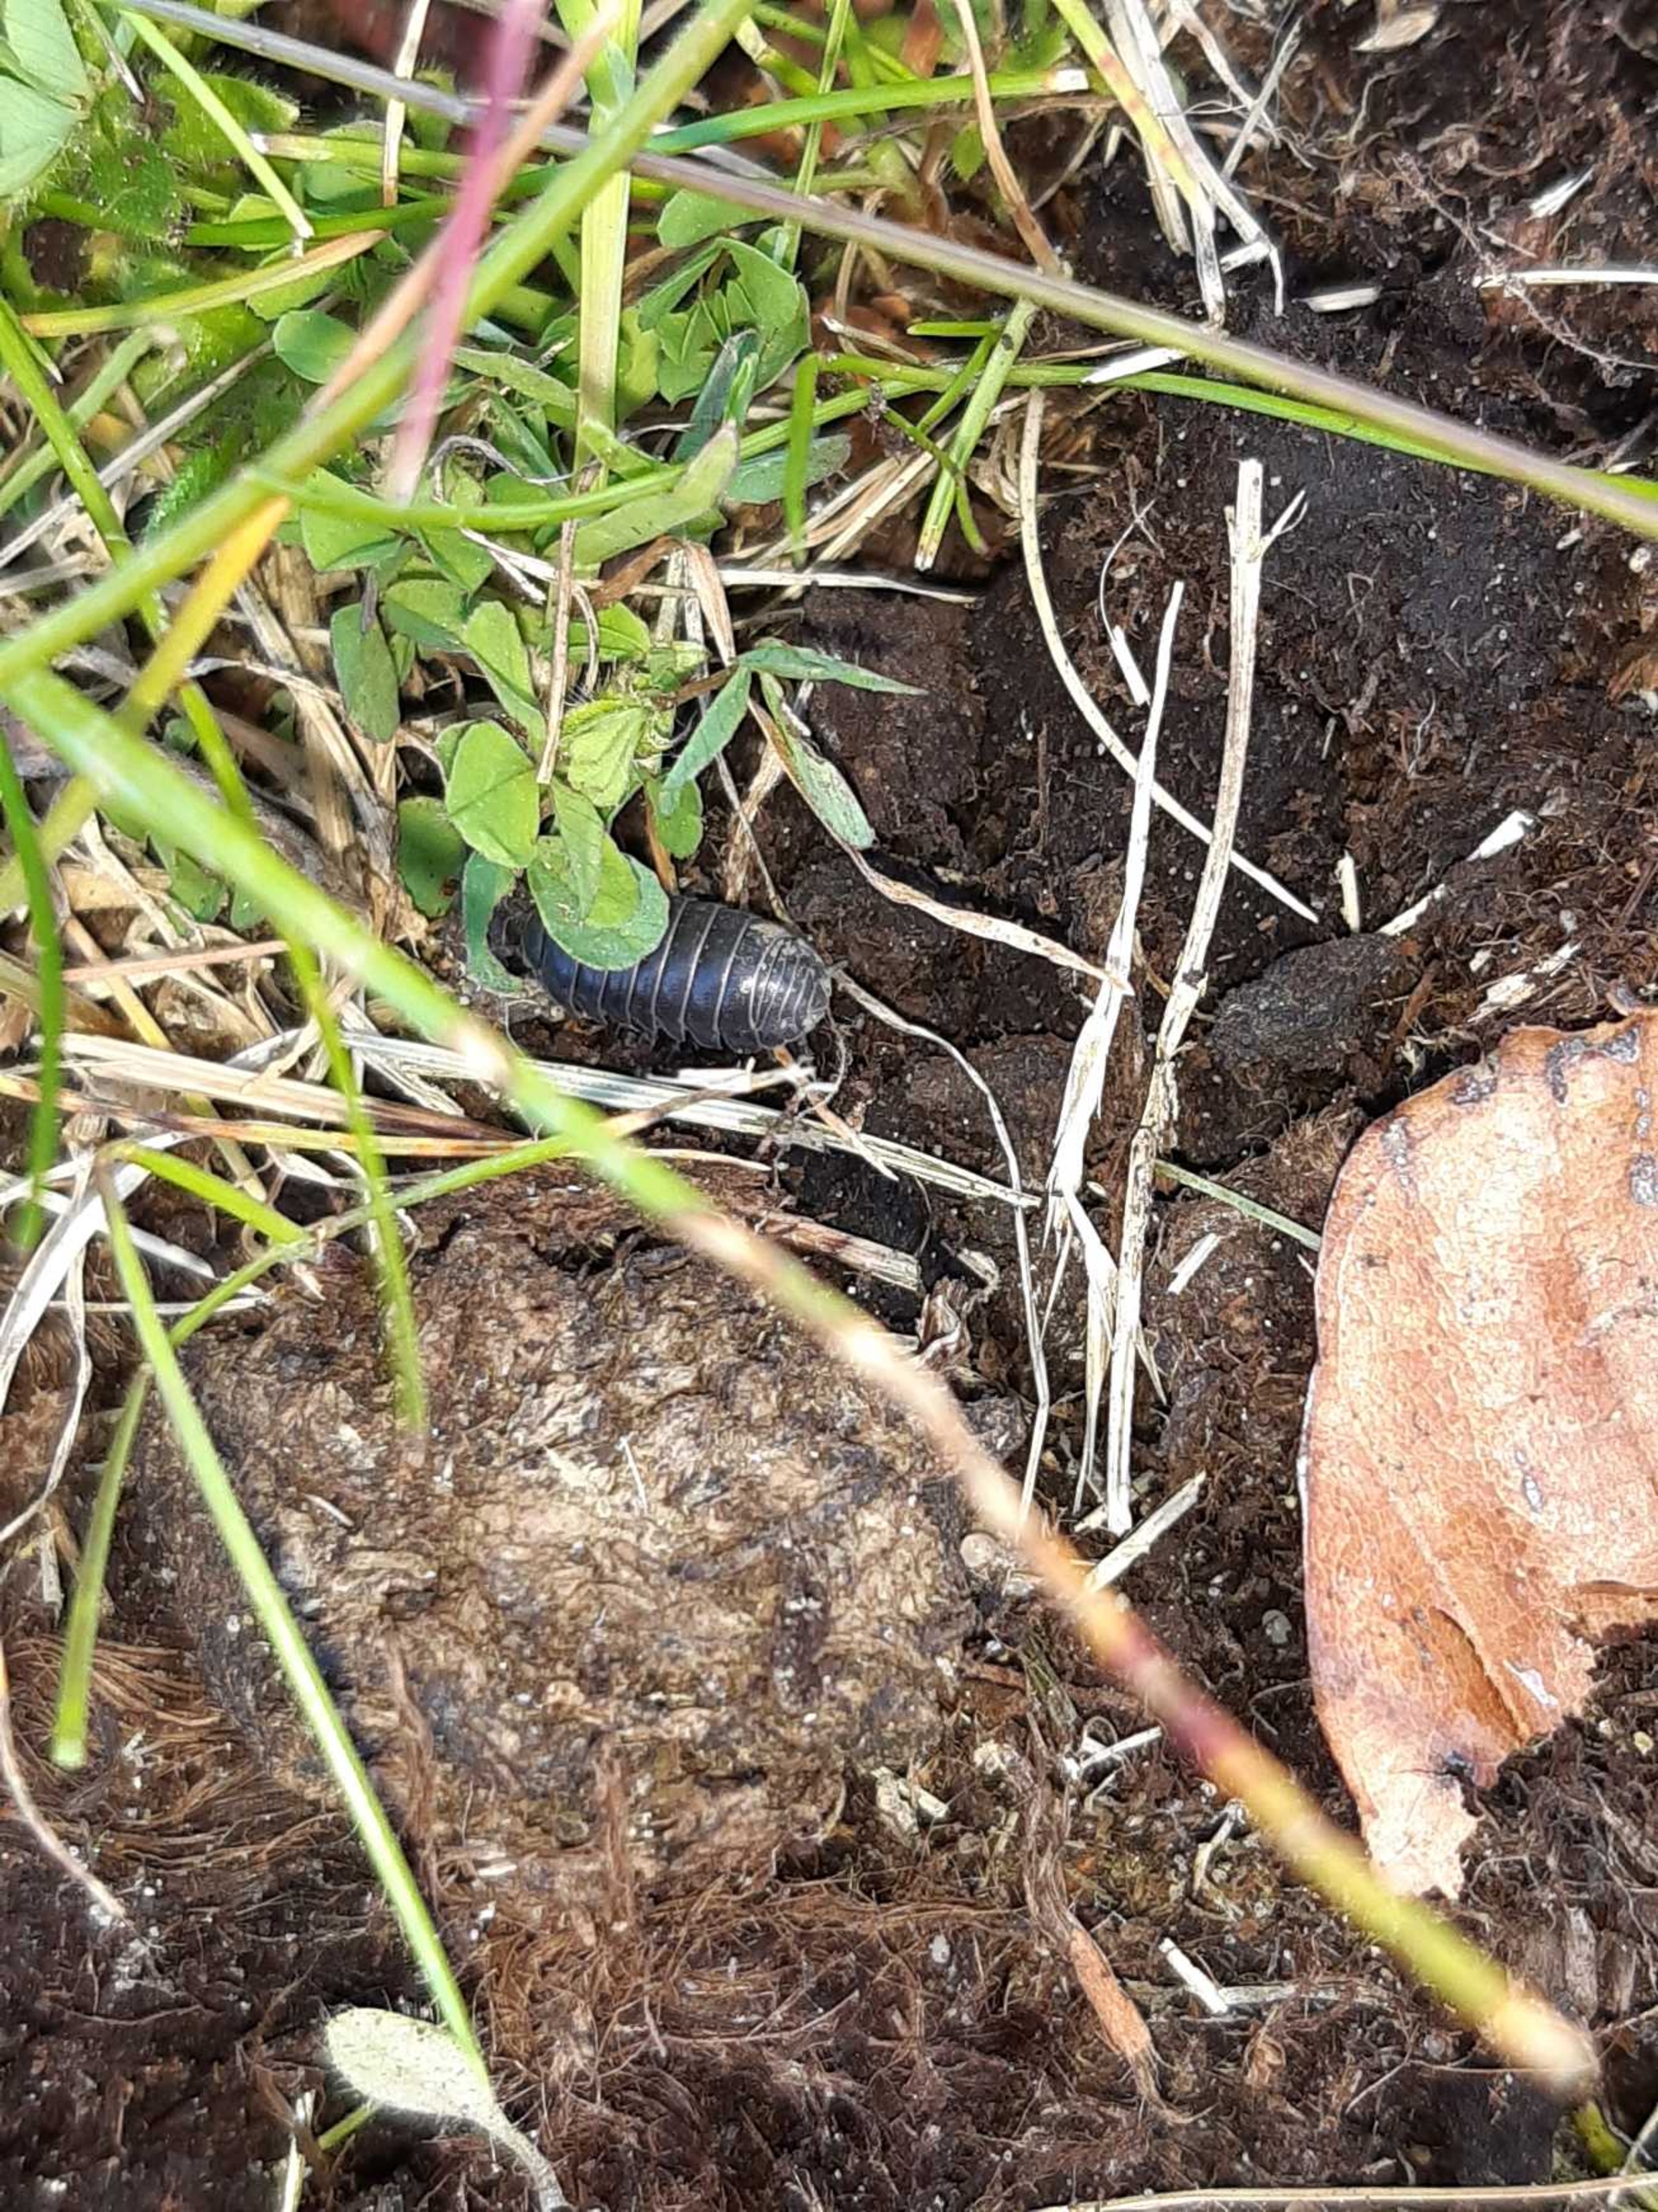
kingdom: Animalia
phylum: Arthropoda
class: Malacostraca
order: Isopoda
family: Armadillidiidae
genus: Armadillidium
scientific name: Armadillidium vulgare
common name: Almindelig kuglebænkebider
